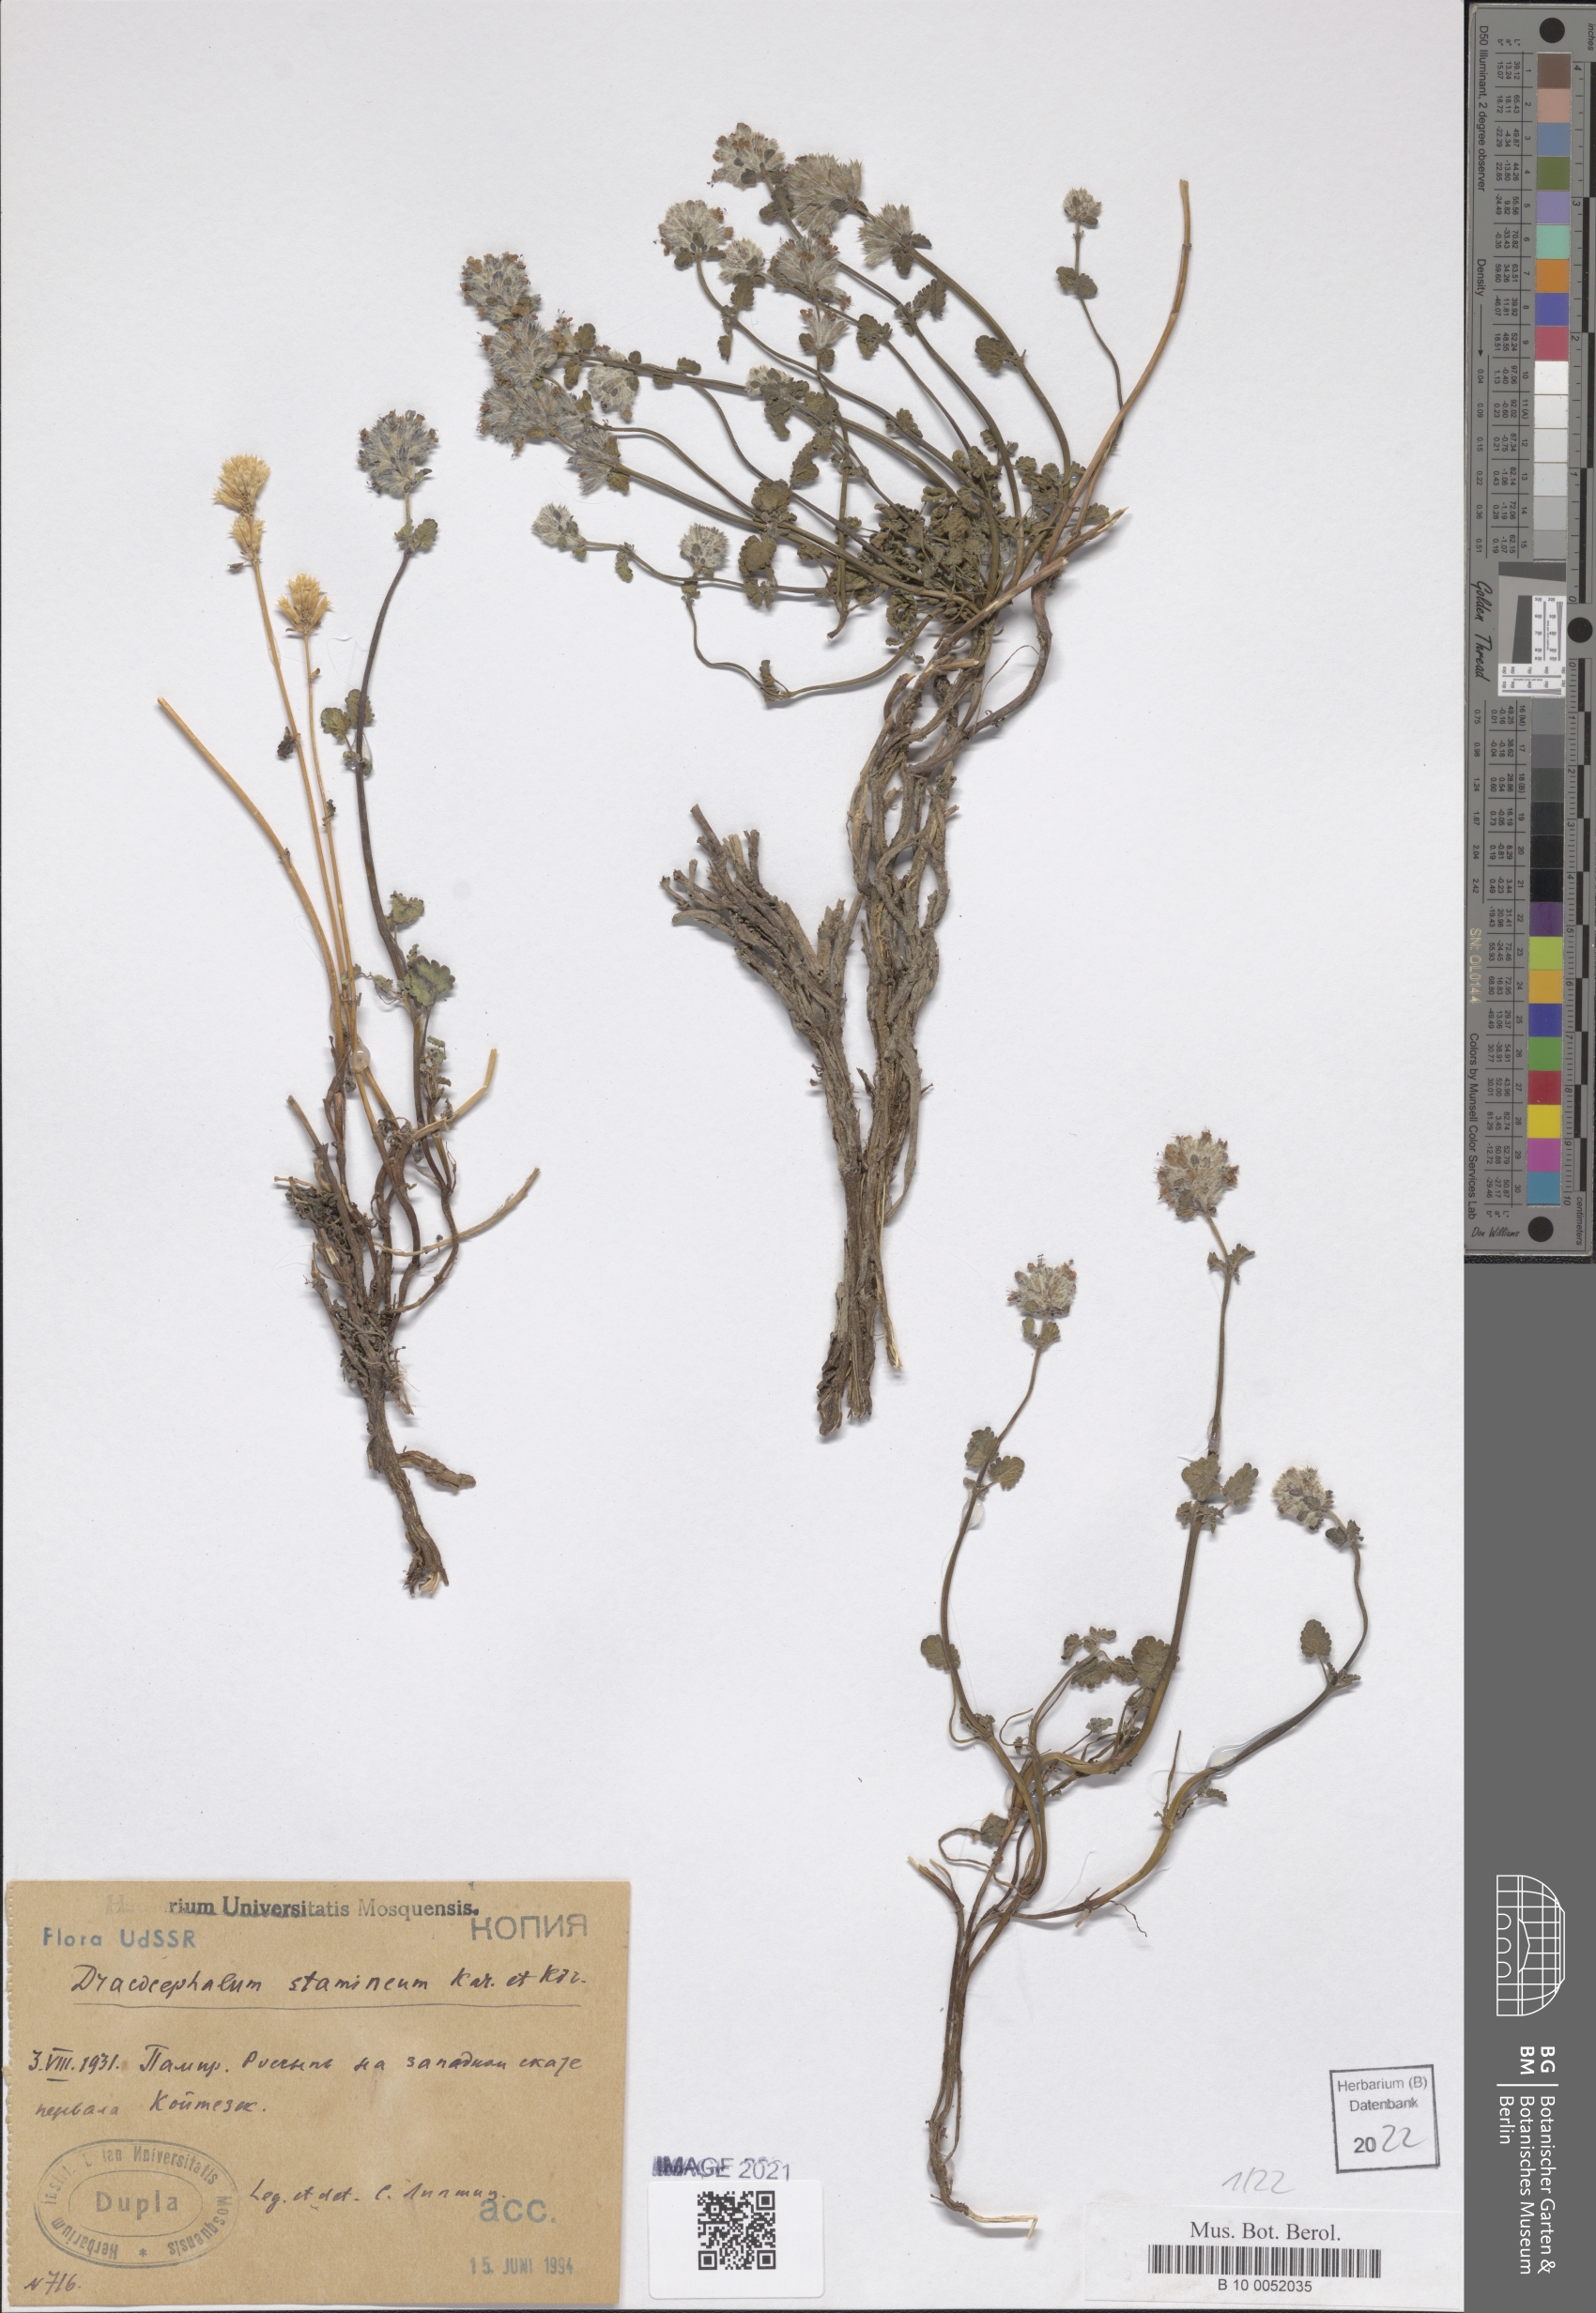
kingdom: Plantae
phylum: Tracheophyta
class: Magnoliopsida
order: Lamiales
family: Lamiaceae
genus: Dracocephalum
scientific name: Dracocephalum stamineum
